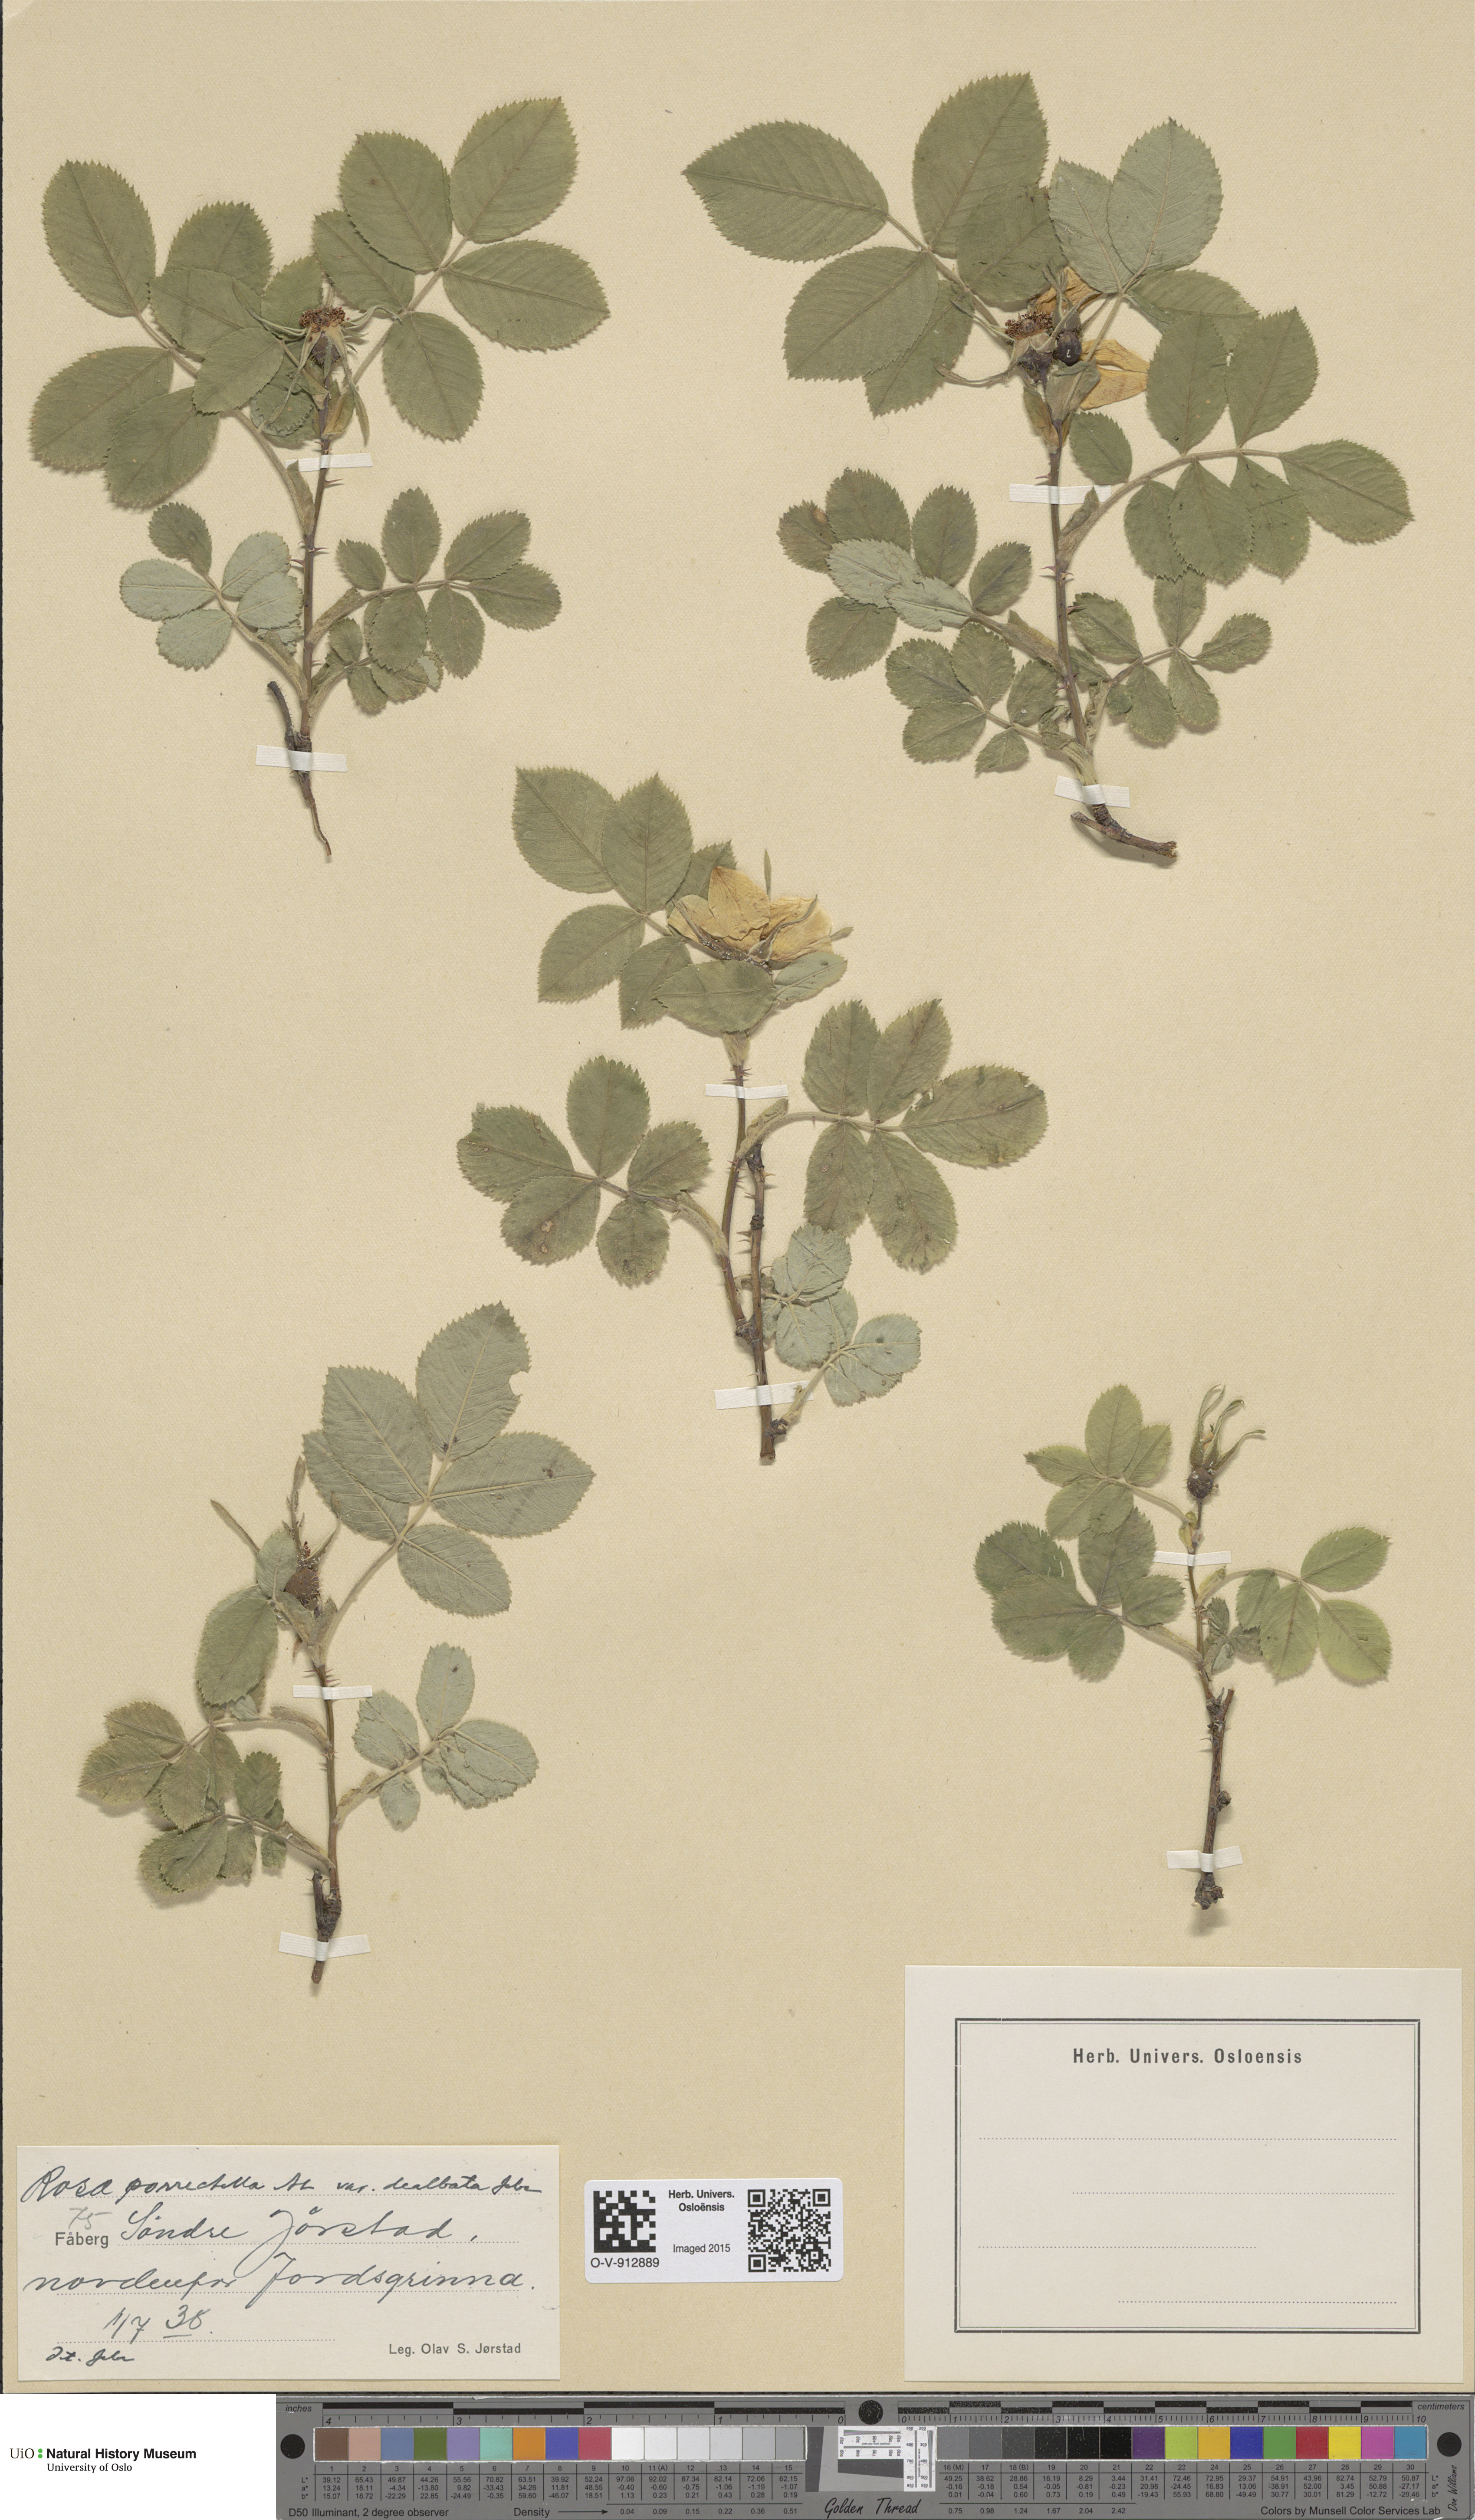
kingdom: Plantae
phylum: Tracheophyta
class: Magnoliopsida
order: Rosales
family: Rosaceae
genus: Rosa
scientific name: Rosa mollis
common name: Rose
